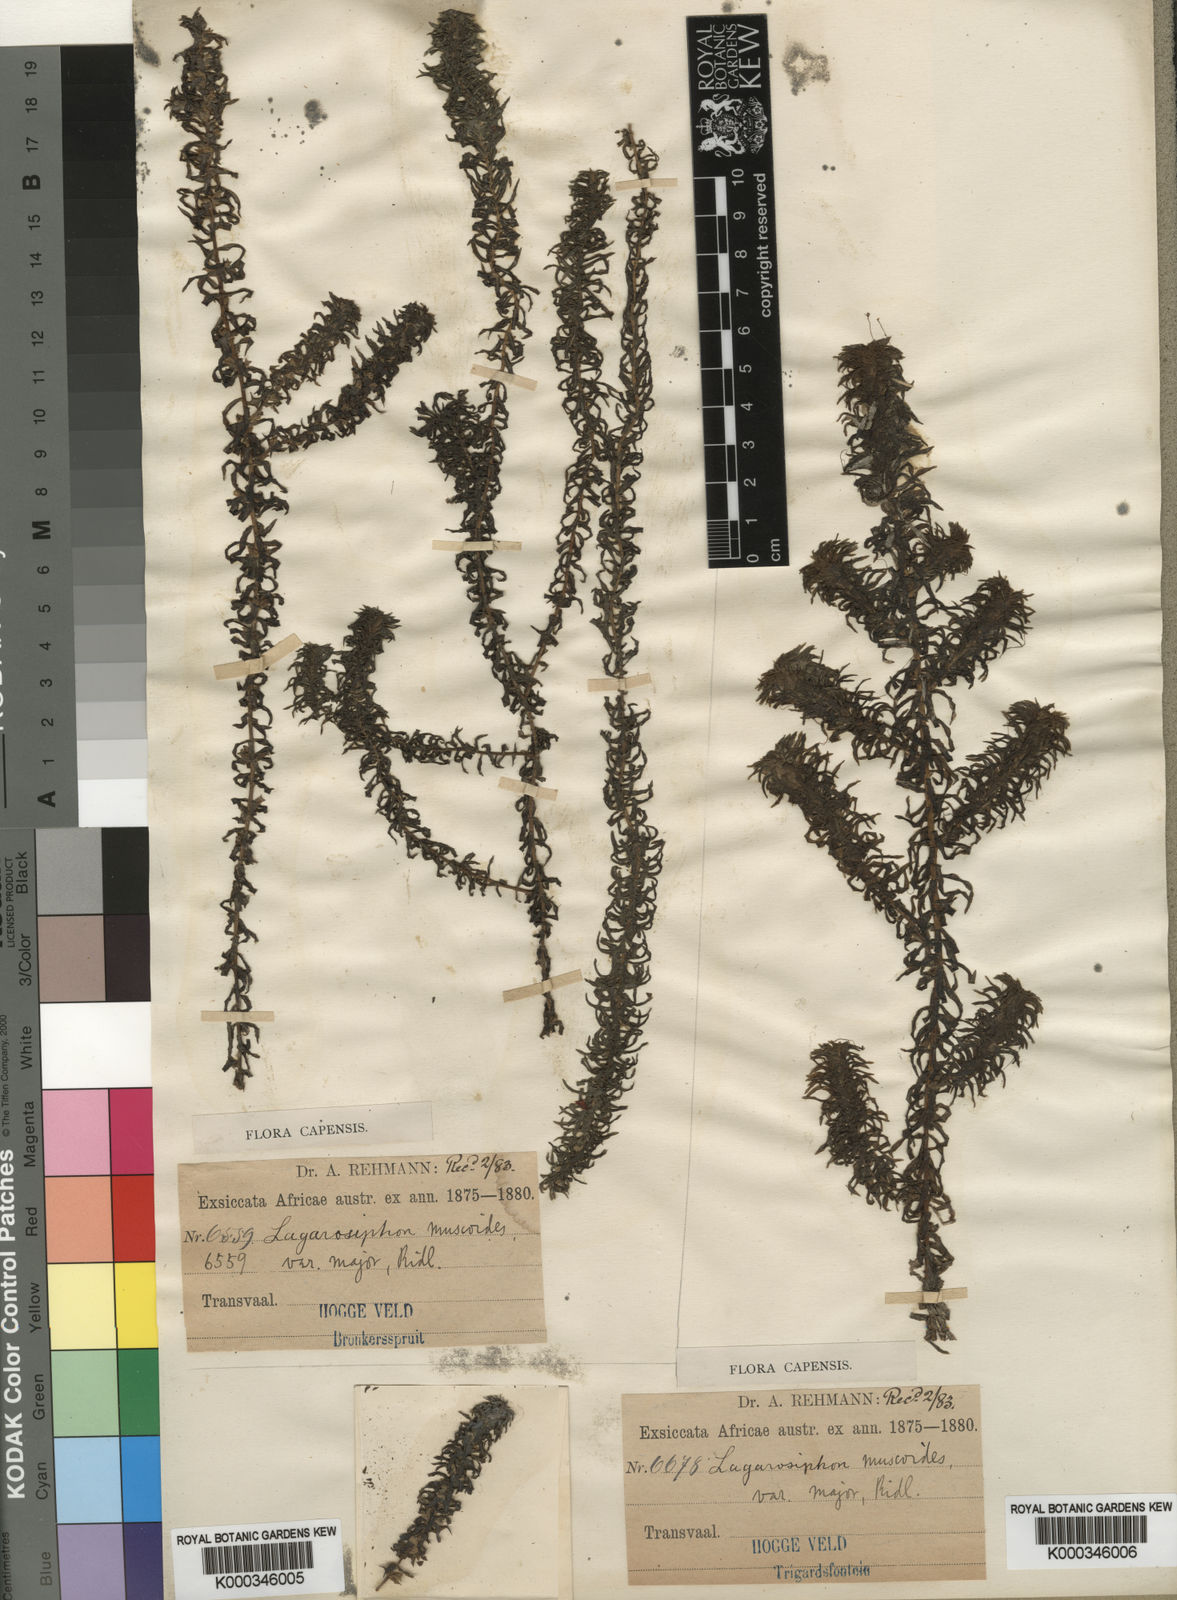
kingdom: Plantae
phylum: Tracheophyta
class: Liliopsida
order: Alismatales
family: Hydrocharitaceae
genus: Lagarosiphon
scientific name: Lagarosiphon
